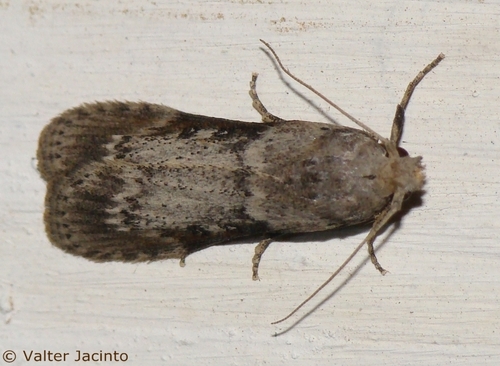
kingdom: Animalia
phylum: Arthropoda
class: Insecta
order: Lepidoptera
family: Pyralidae
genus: Lamoria
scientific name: Lamoria jordanis
